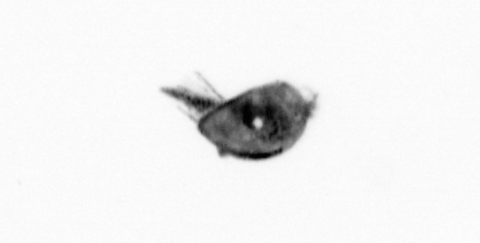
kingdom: Animalia
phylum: Arthropoda
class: Maxillopoda
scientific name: Maxillopoda
